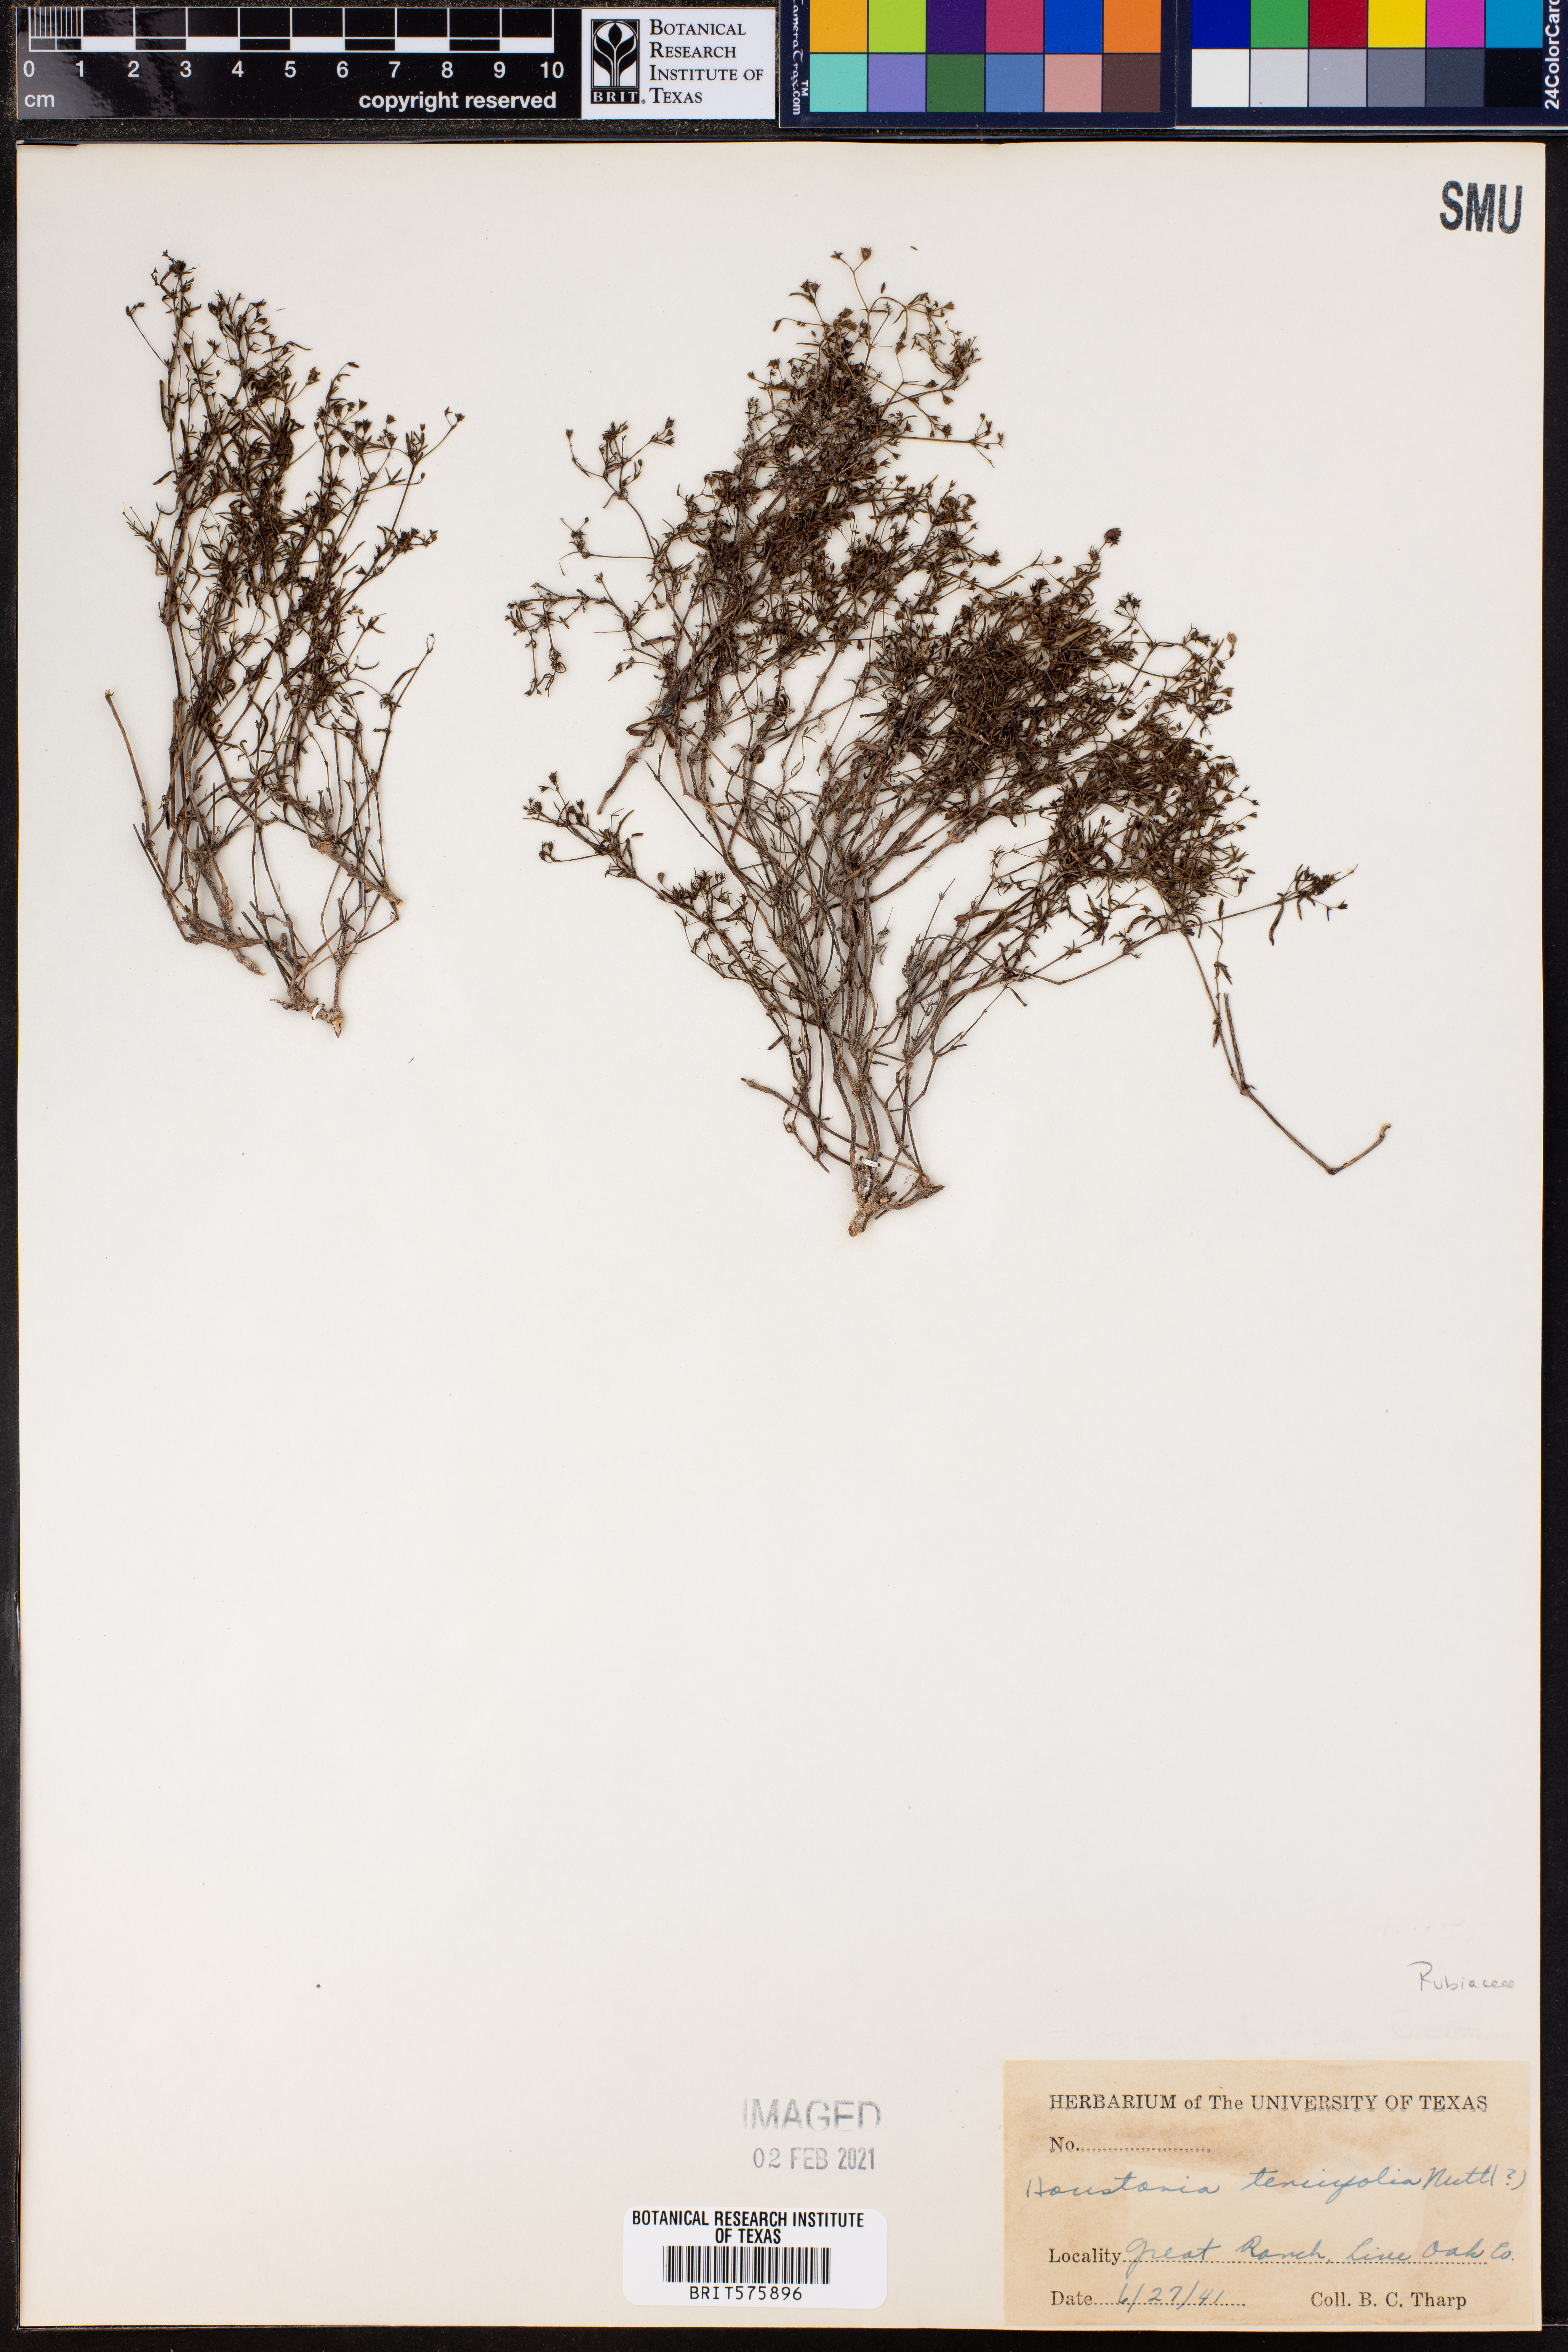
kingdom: Plantae
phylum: Tracheophyta
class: Magnoliopsida
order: Gentianales
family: Rubiaceae
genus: Houstonia
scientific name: Houstonia longifolia
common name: Long-leaved bluets
